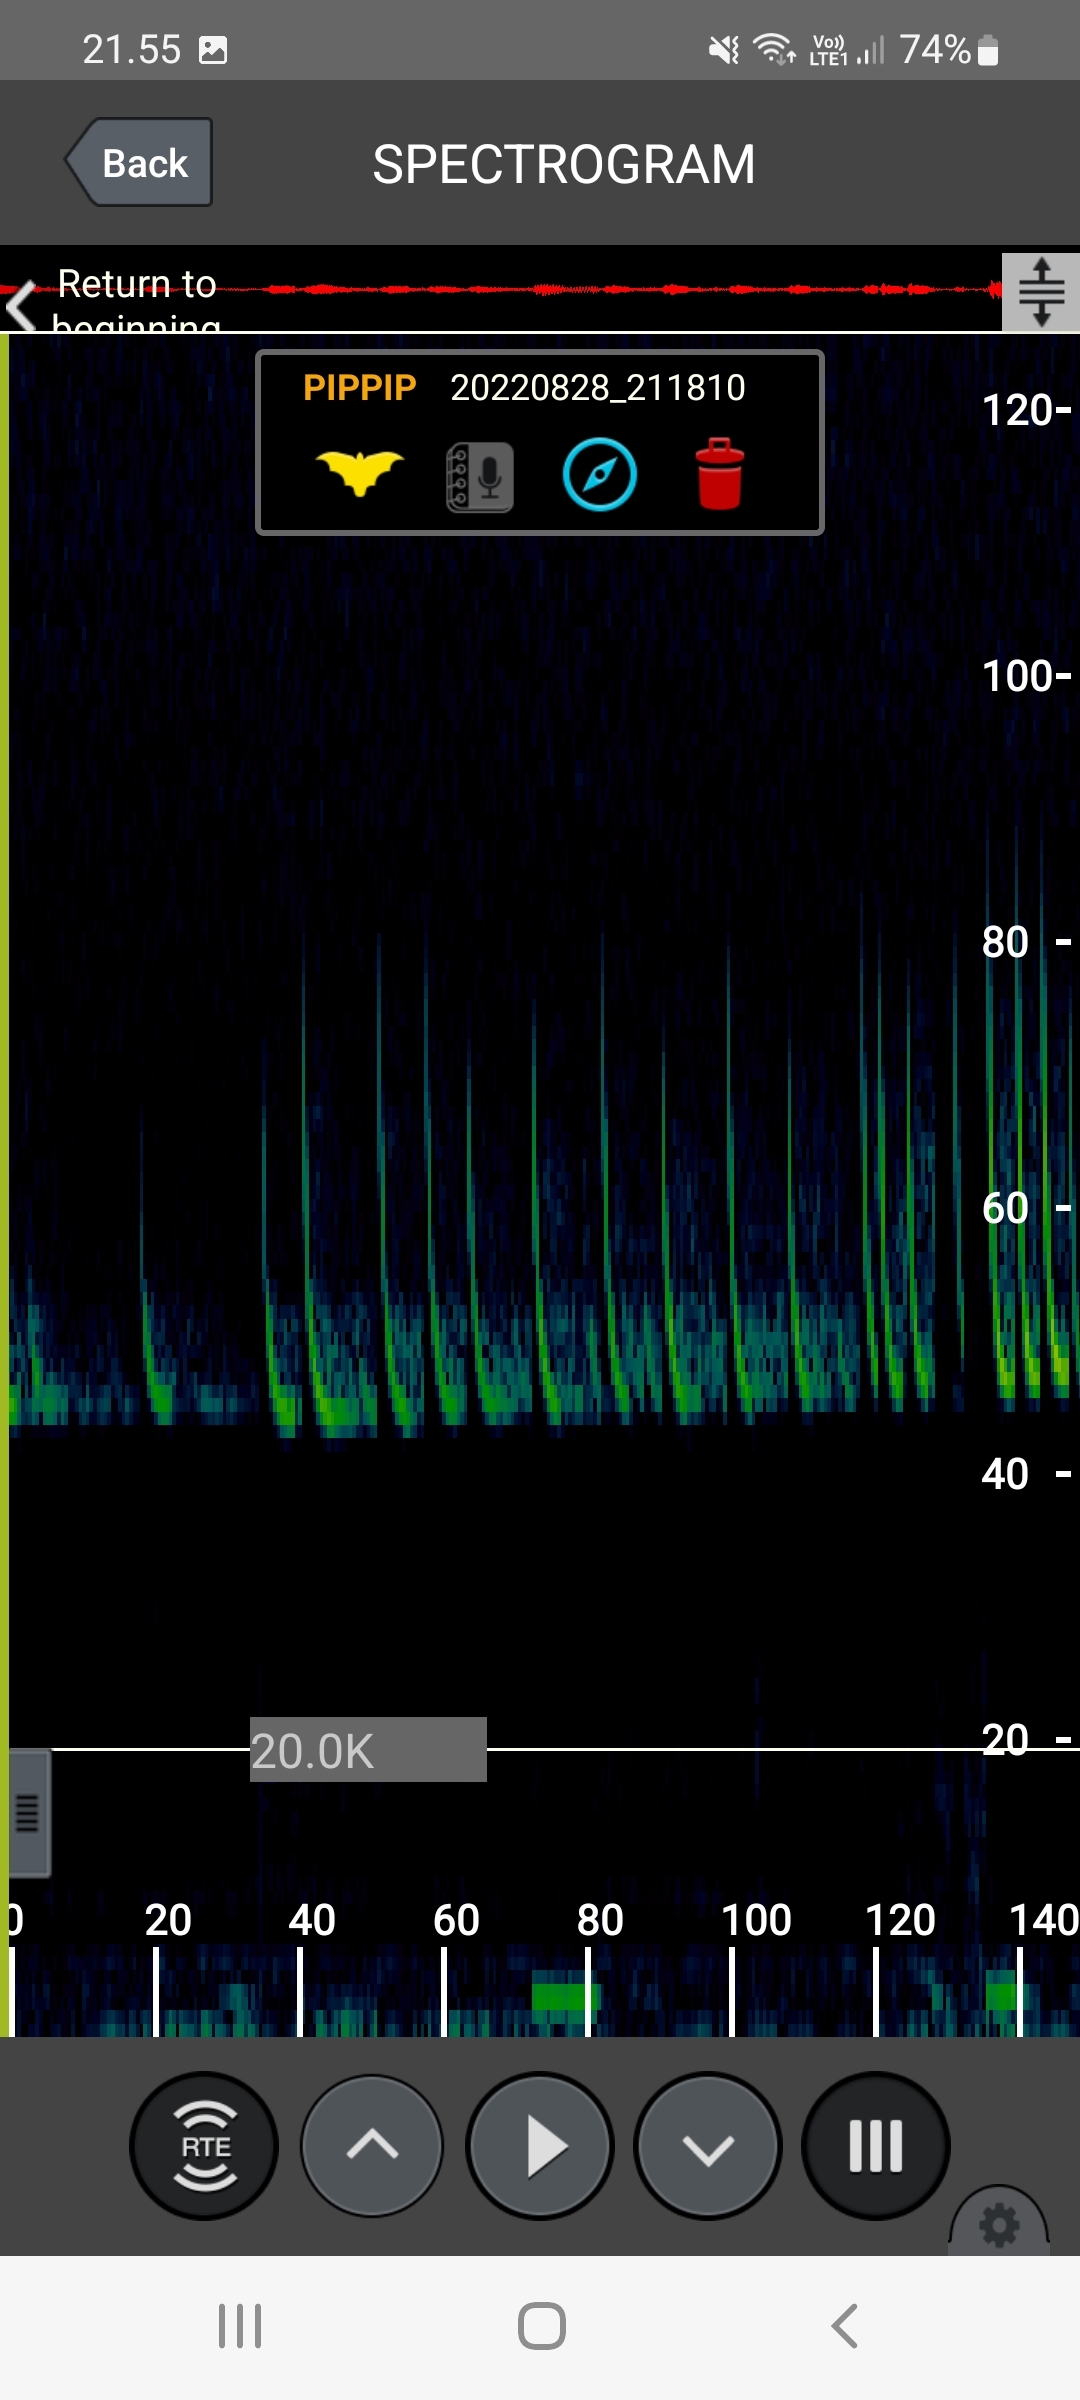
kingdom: Animalia
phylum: Chordata
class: Mammalia
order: Chiroptera
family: Vespertilionidae
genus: Pipistrellus
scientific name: Pipistrellus pipistrellus
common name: Pipistrelflagermus
